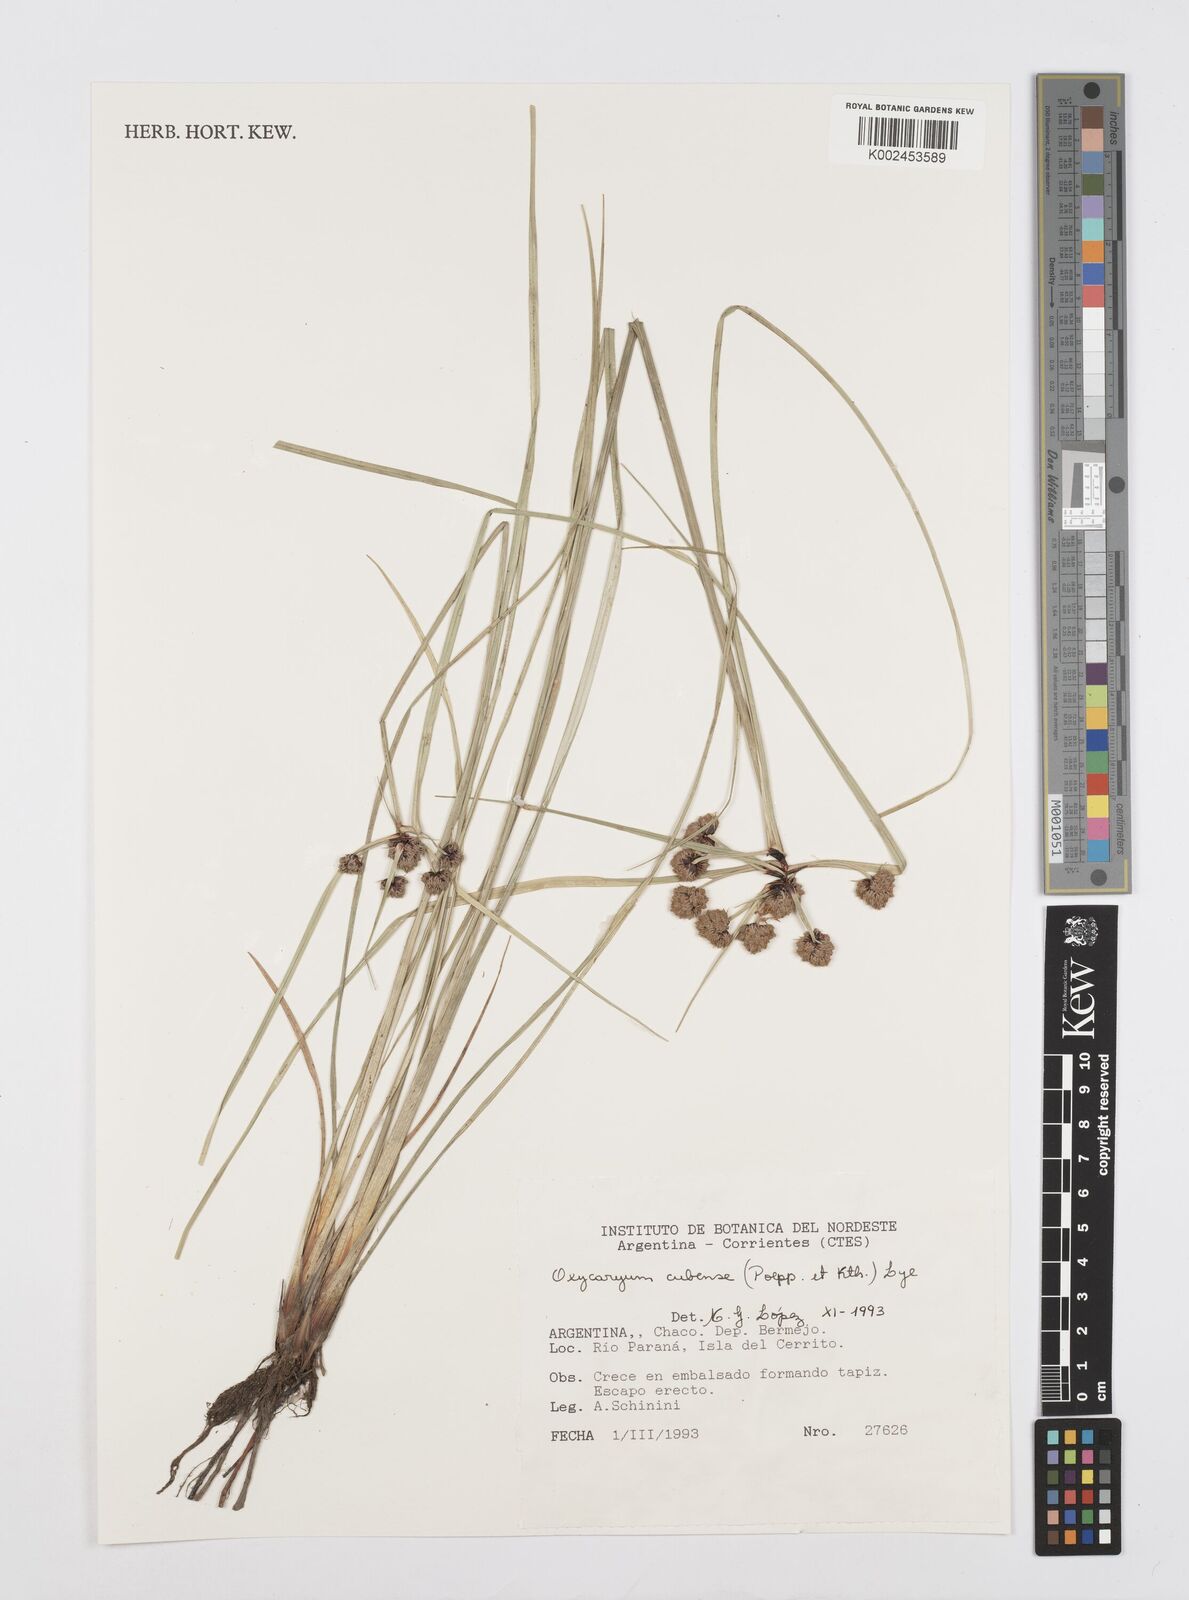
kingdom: Plantae
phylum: Tracheophyta
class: Liliopsida
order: Poales
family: Cyperaceae
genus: Cyperus
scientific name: Cyperus elegans
